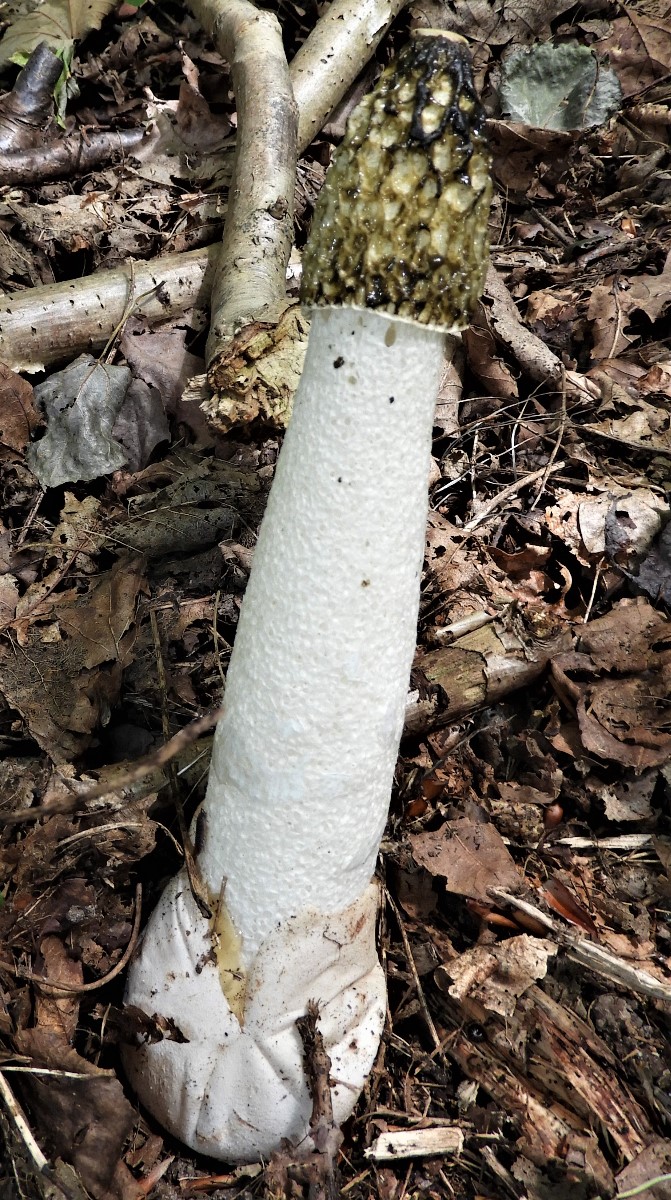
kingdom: Fungi
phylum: Basidiomycota
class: Agaricomycetes
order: Phallales
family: Phallaceae
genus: Phallus
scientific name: Phallus impudicus
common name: almindelig stinksvamp
